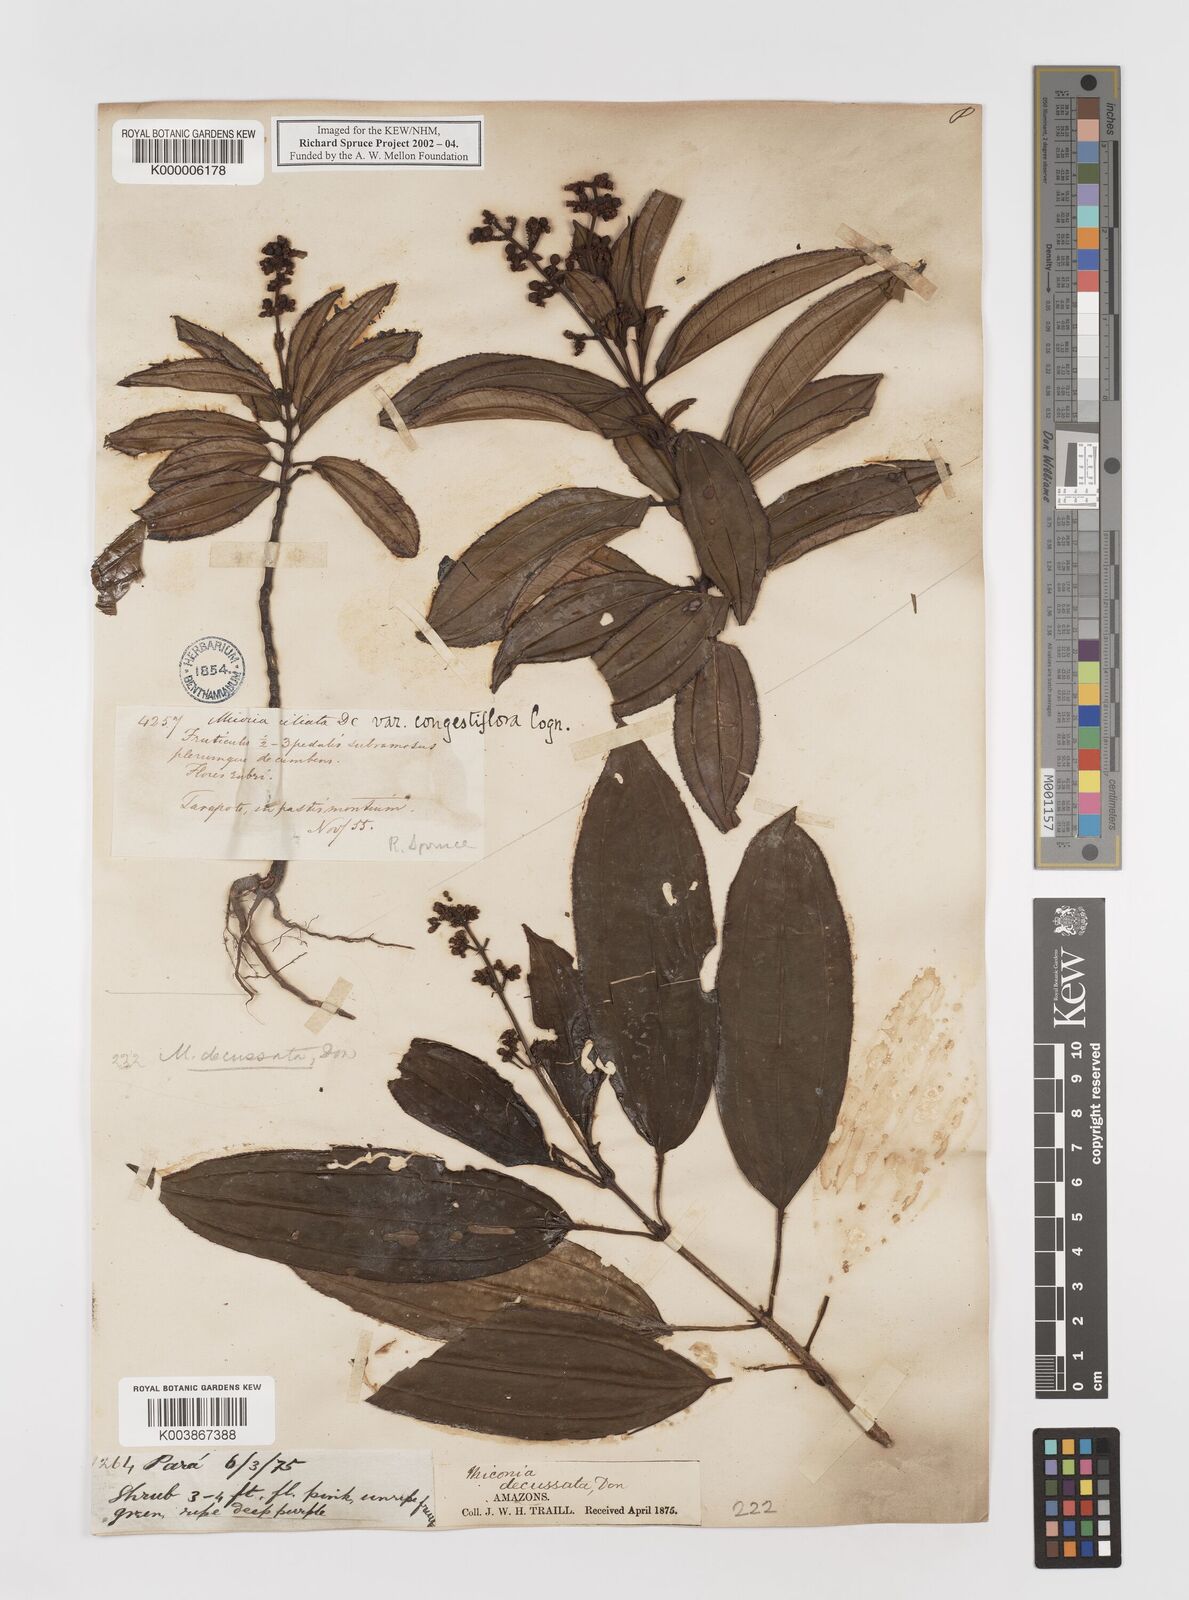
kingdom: Plantae
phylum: Tracheophyta
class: Magnoliopsida
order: Myrtales
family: Melastomataceae
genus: Miconia
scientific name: Miconia ciliata
